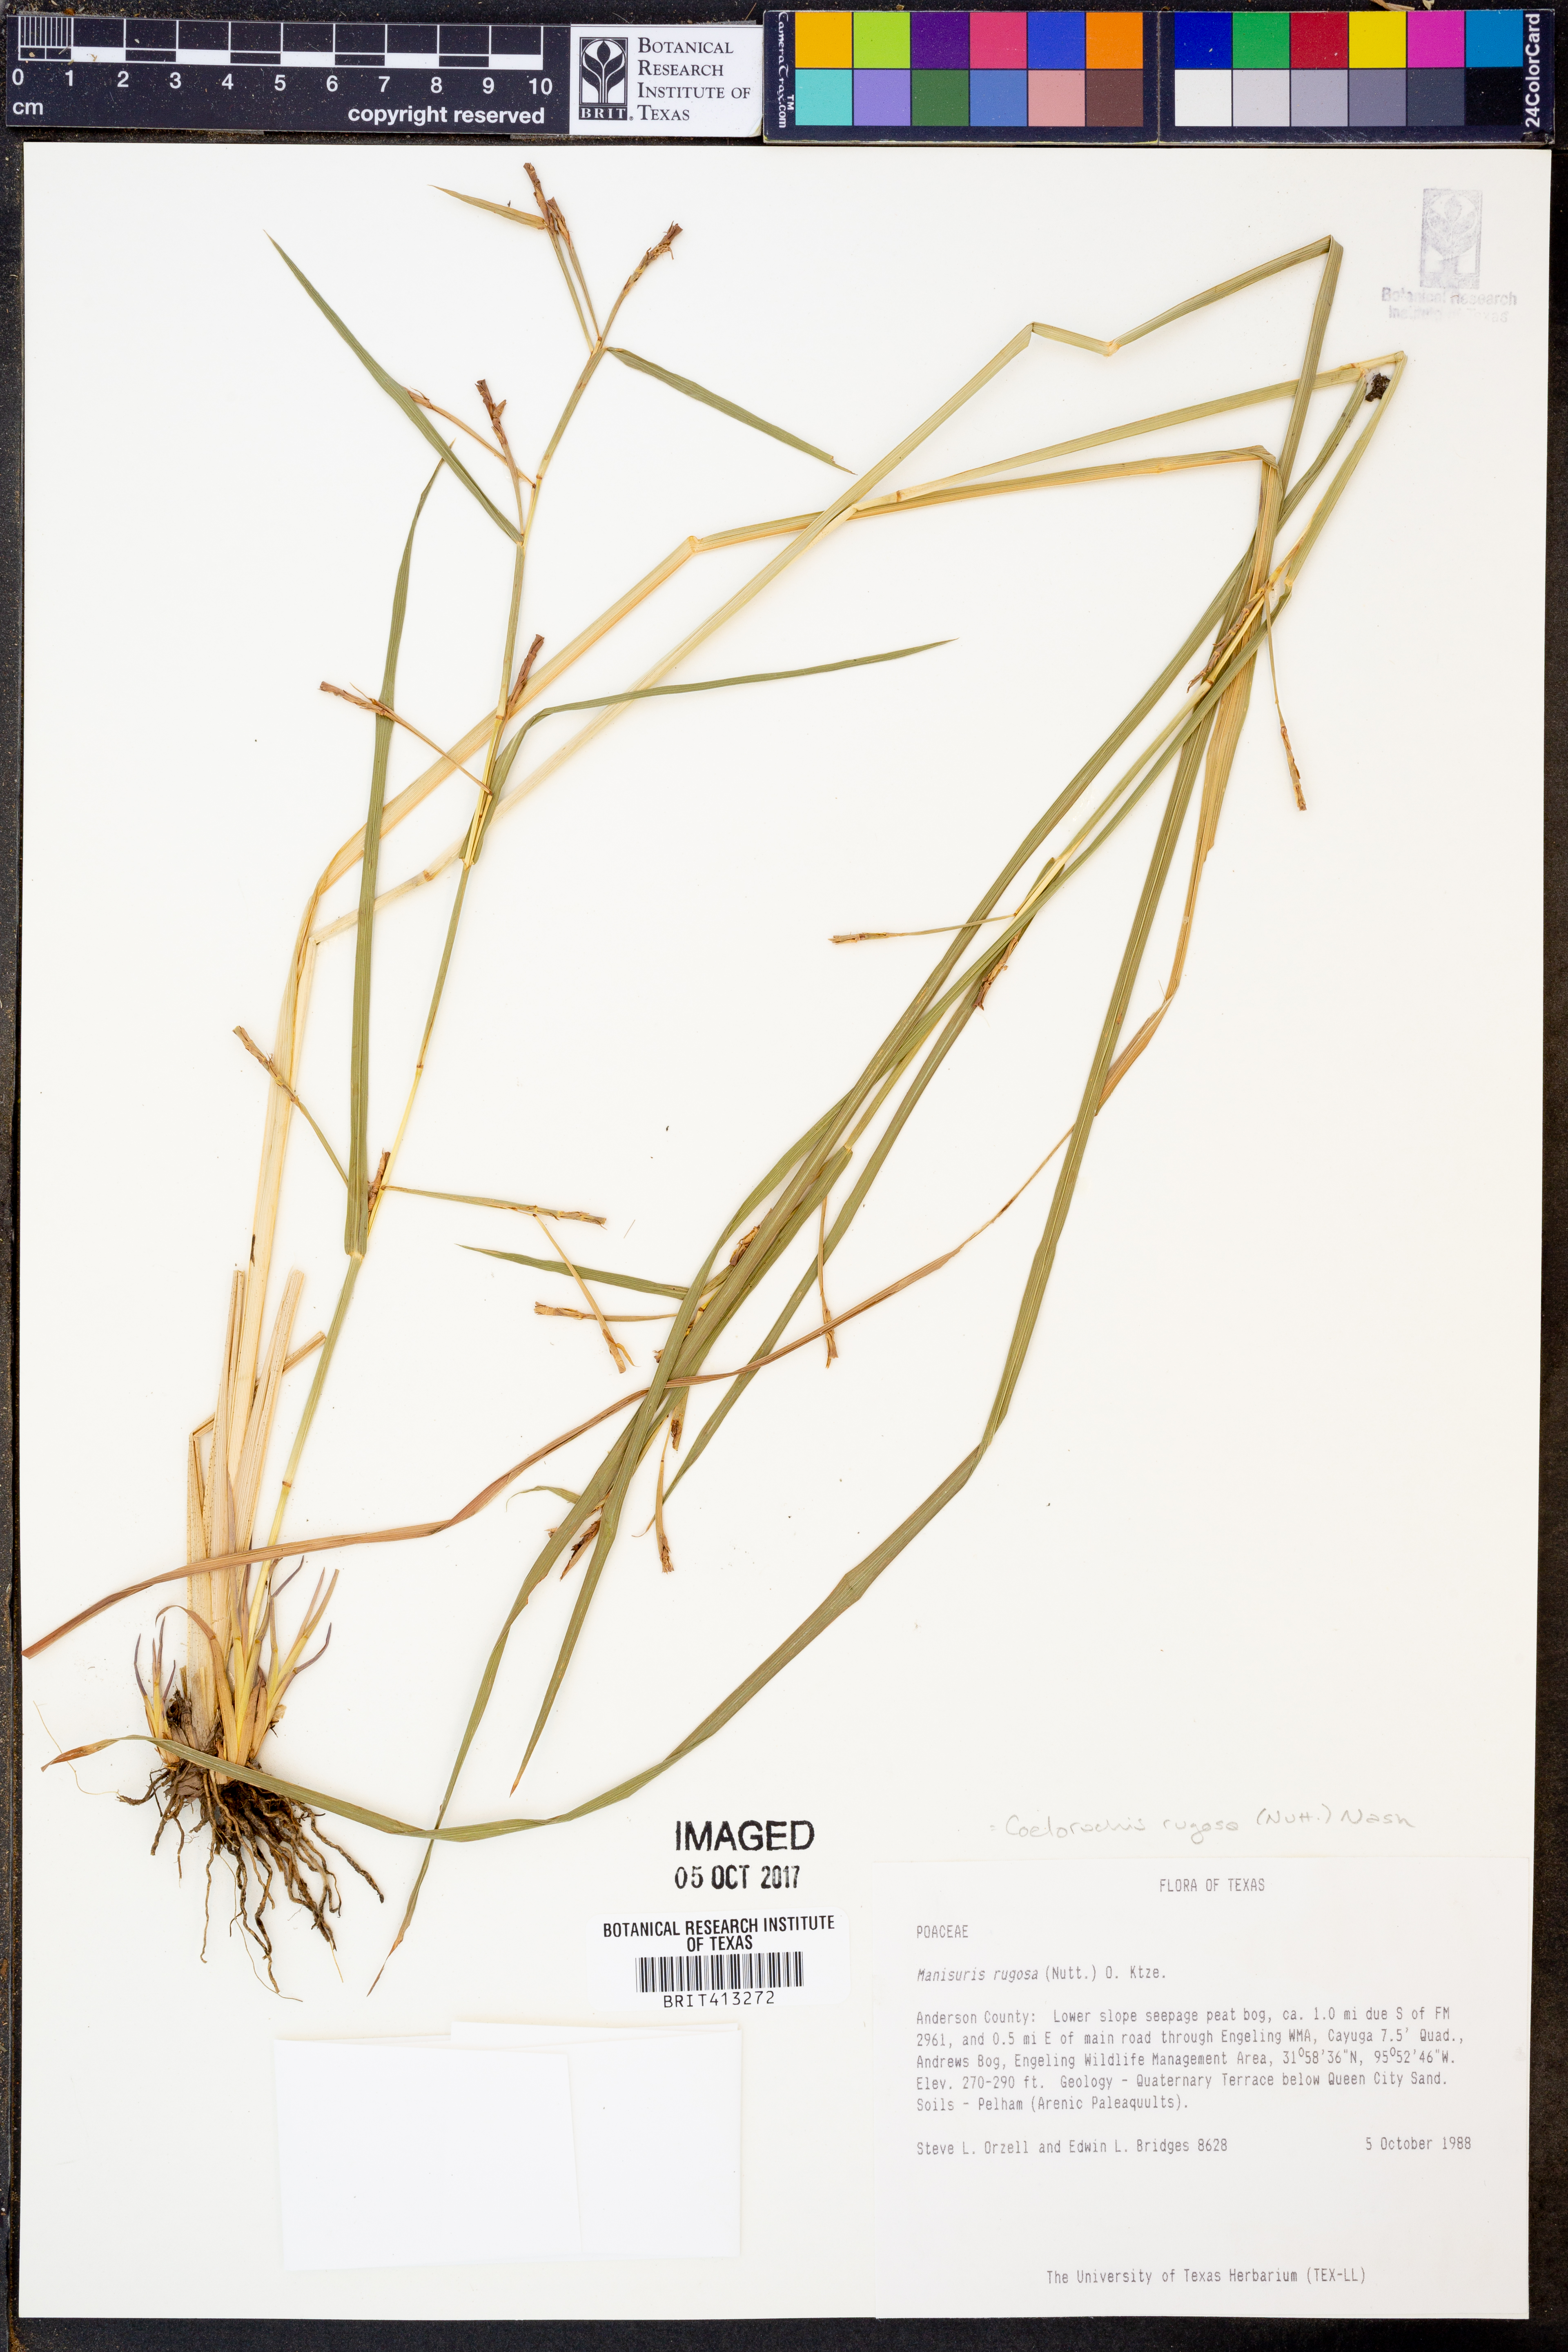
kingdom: Plantae
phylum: Tracheophyta
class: Liliopsida
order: Poales
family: Poaceae
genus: Rottboellia
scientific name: Rottboellia rugosa
